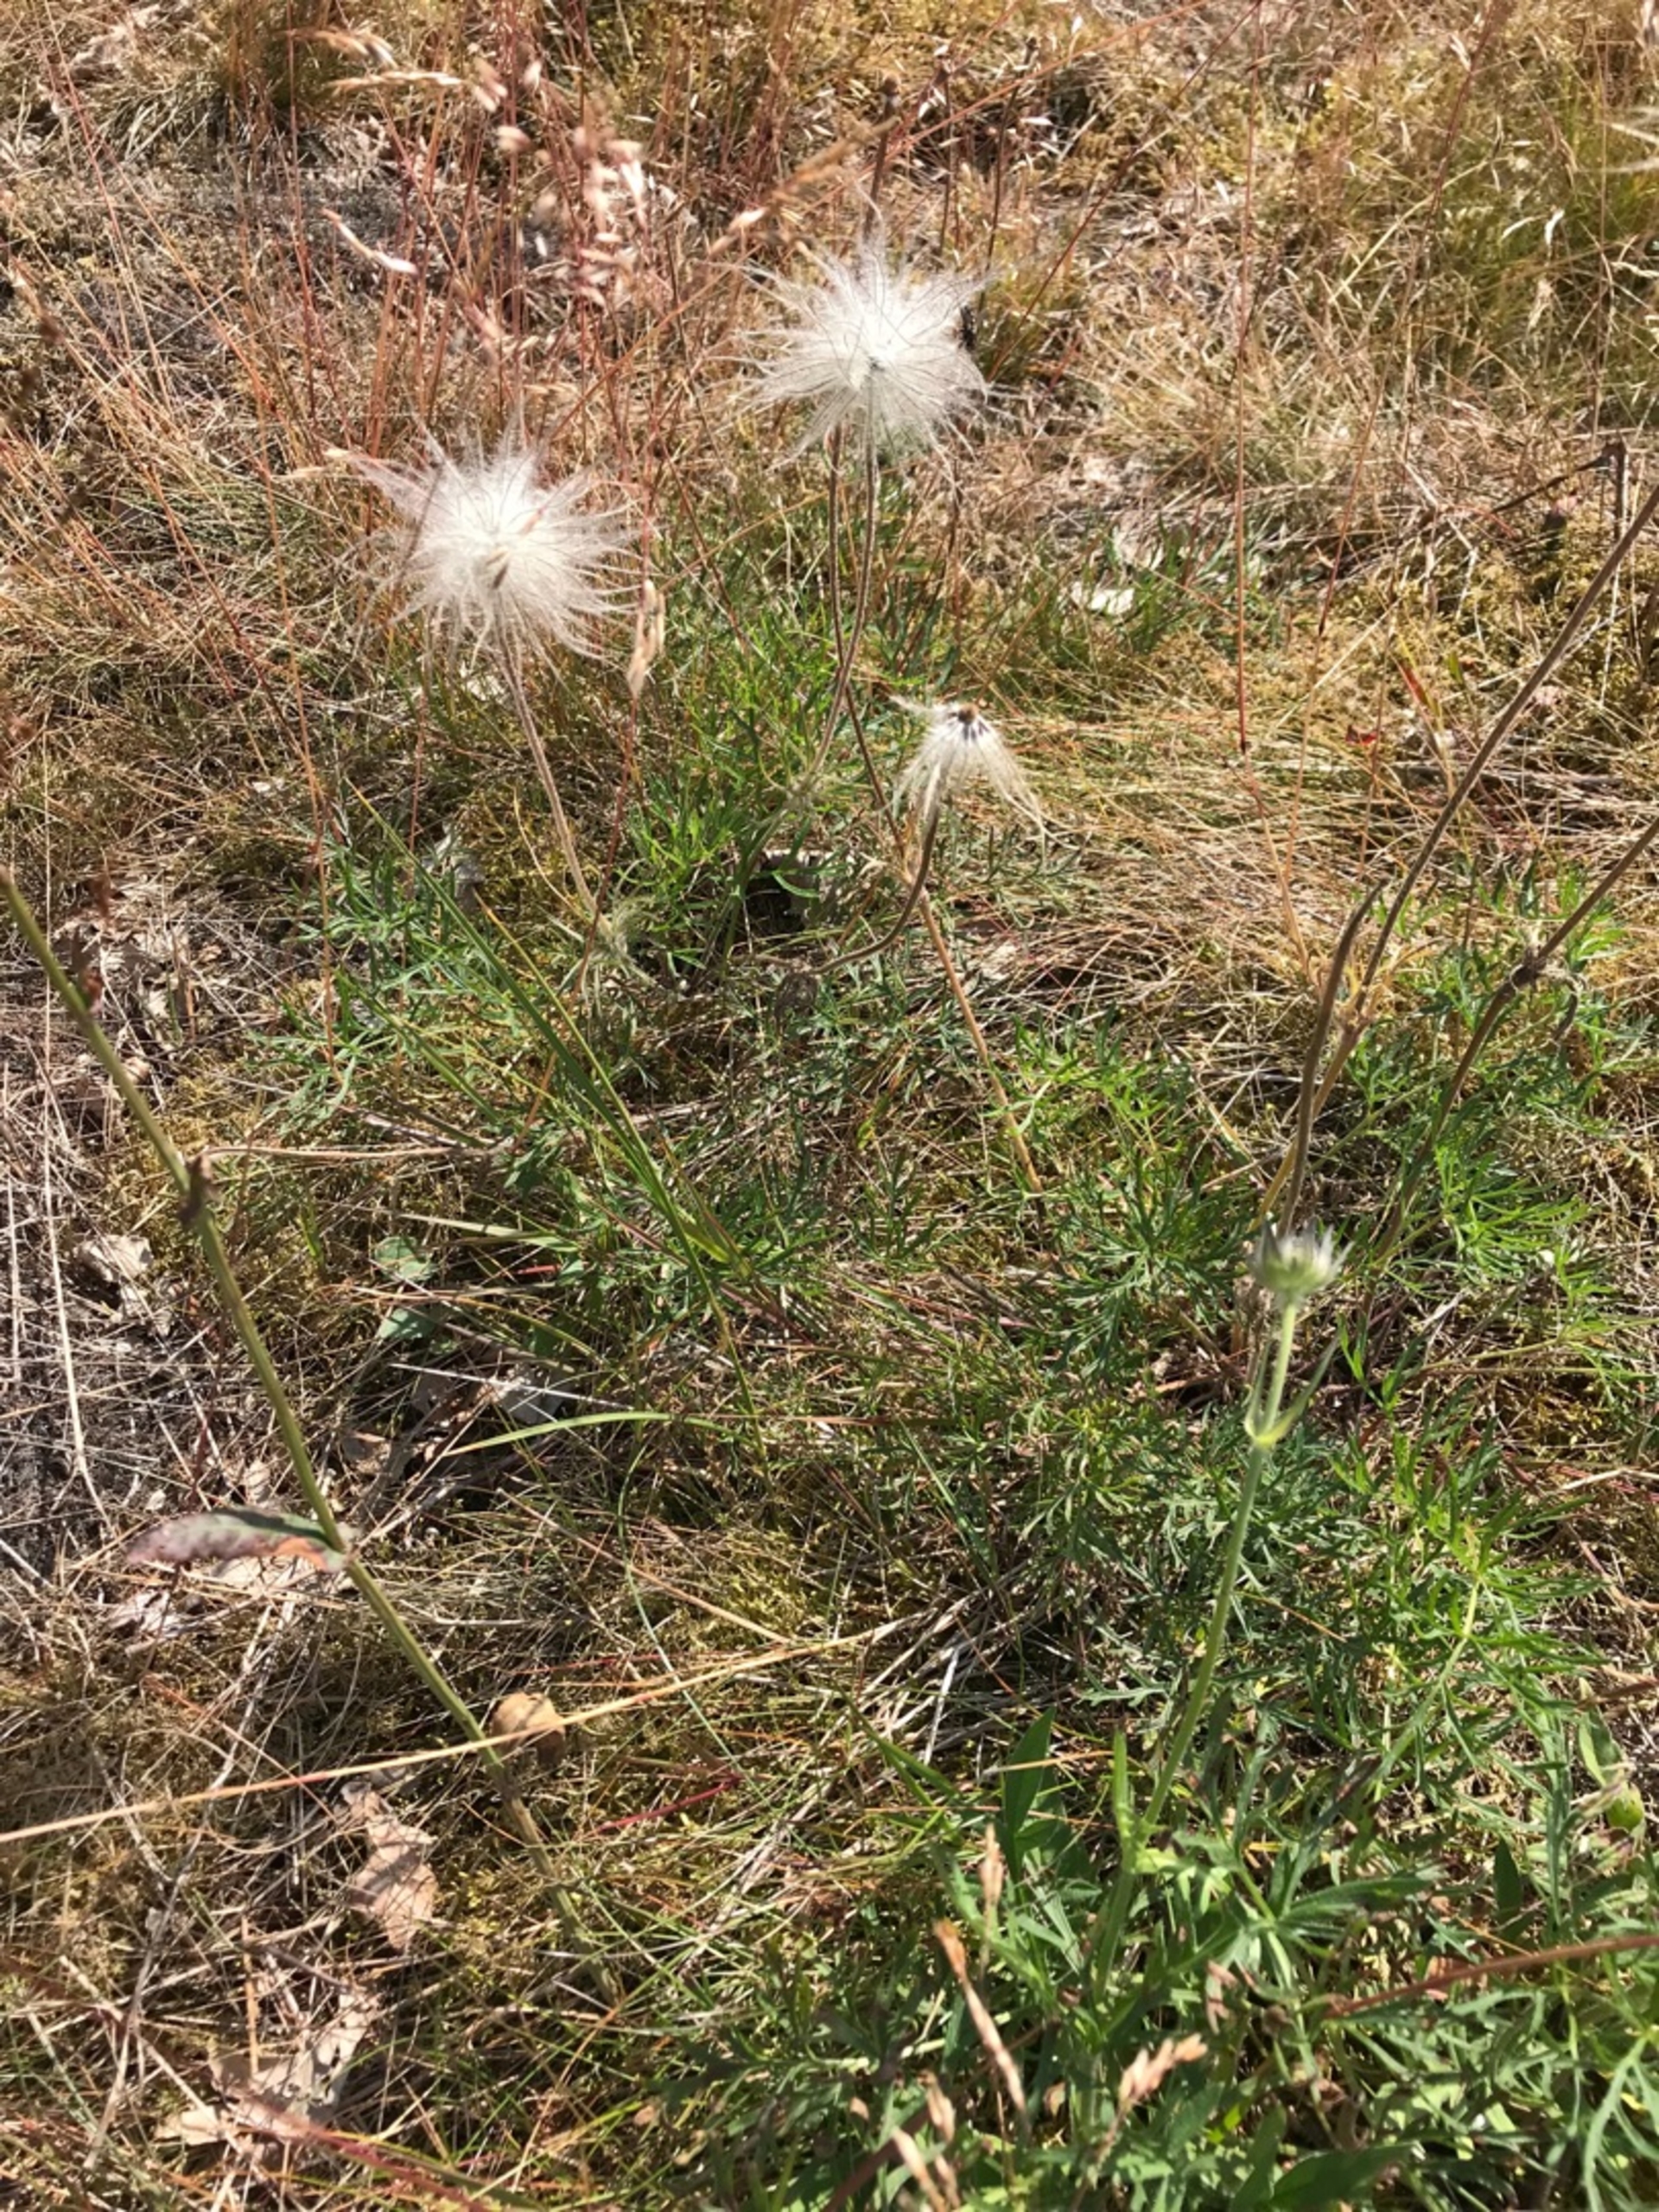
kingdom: Plantae
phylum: Tracheophyta
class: Magnoliopsida
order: Ranunculales
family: Ranunculaceae
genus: Pulsatilla
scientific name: Pulsatilla pratensis
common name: Nikkende kobjælde
